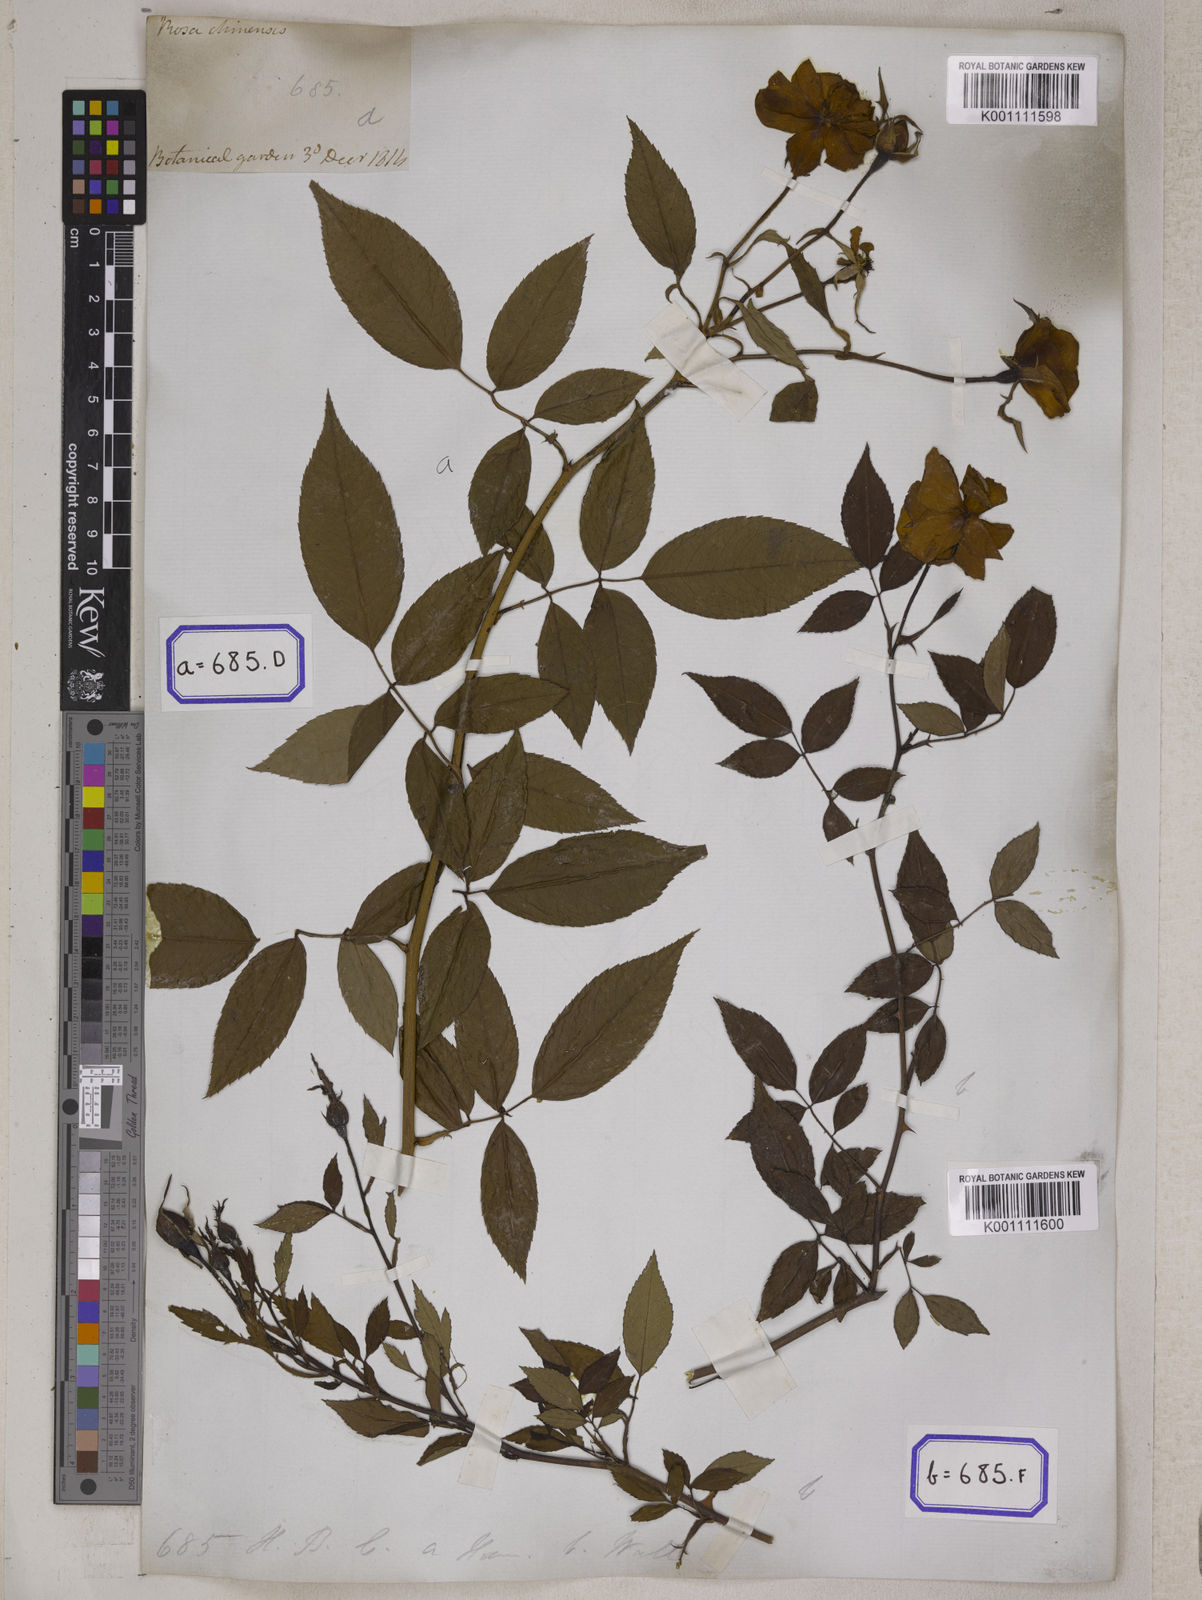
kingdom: Plantae
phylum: Tracheophyta
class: Magnoliopsida
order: Rosales
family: Rosaceae
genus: Rosa
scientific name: Rosa indica
